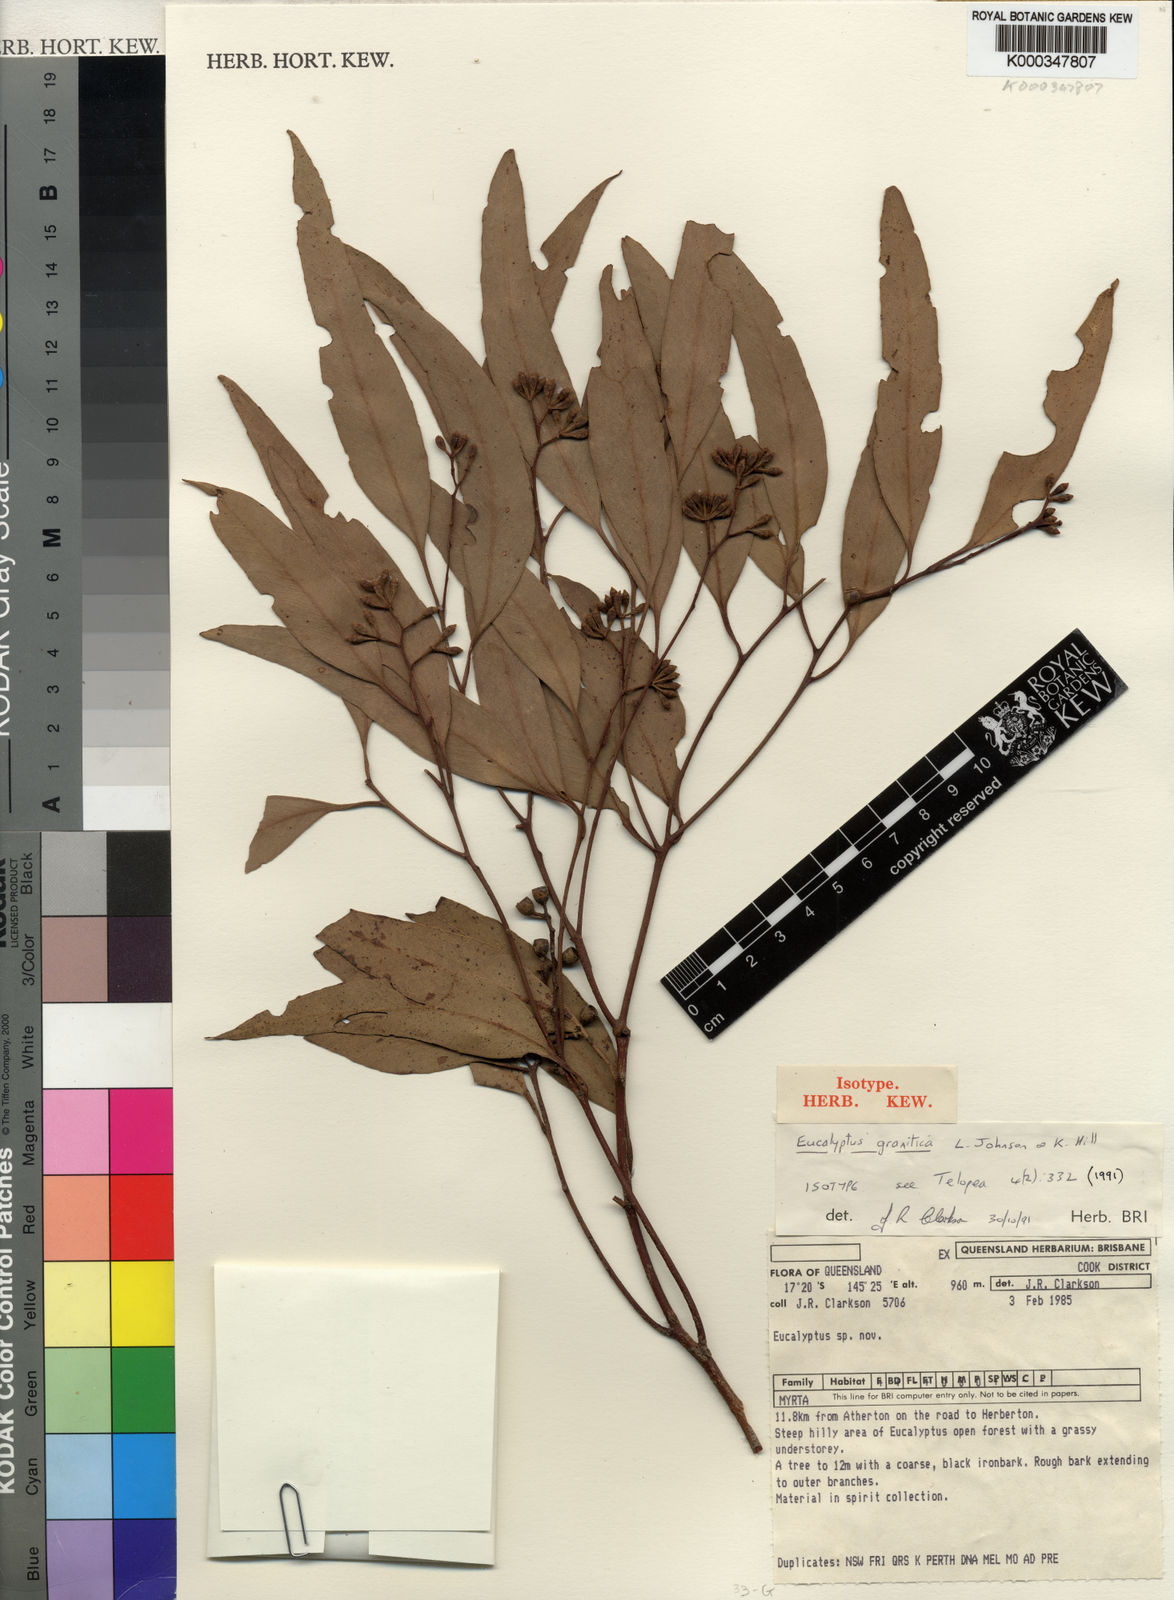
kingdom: Plantae
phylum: Tracheophyta
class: Magnoliopsida
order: Myrtales
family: Myrtaceae
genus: Eucalyptus
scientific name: Eucalyptus granitica
